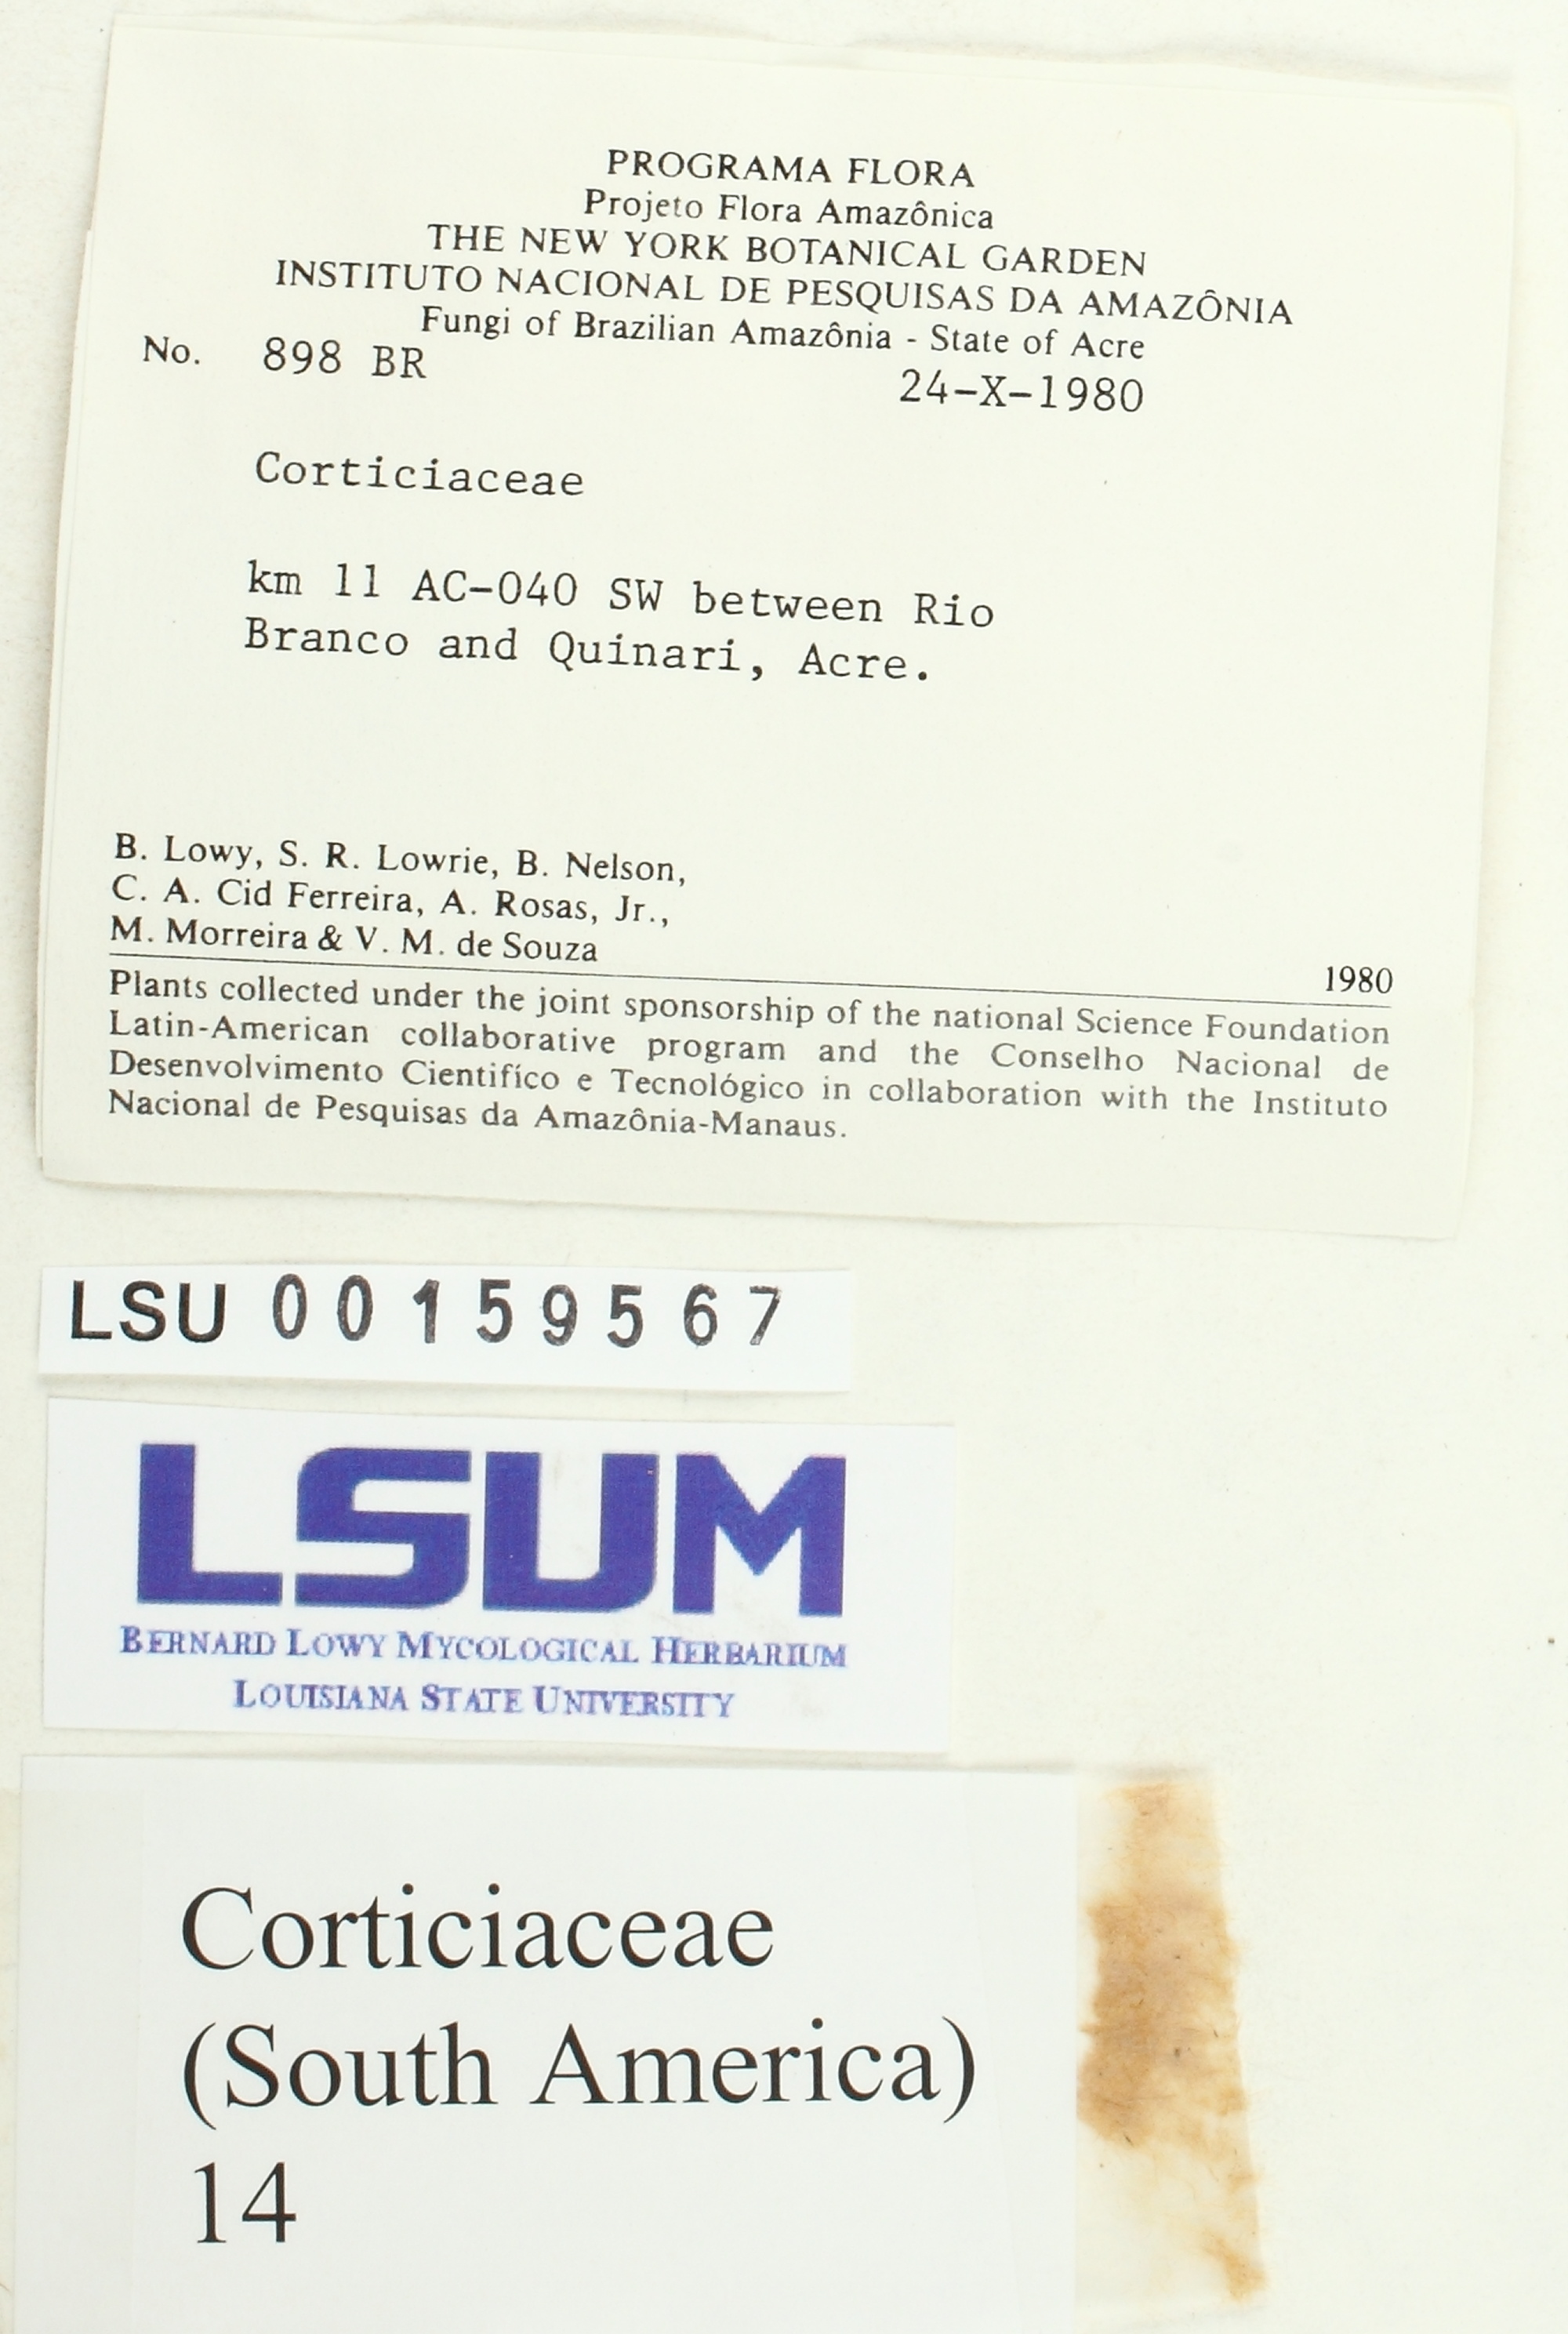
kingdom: Fungi
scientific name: Fungi
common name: Fungi
